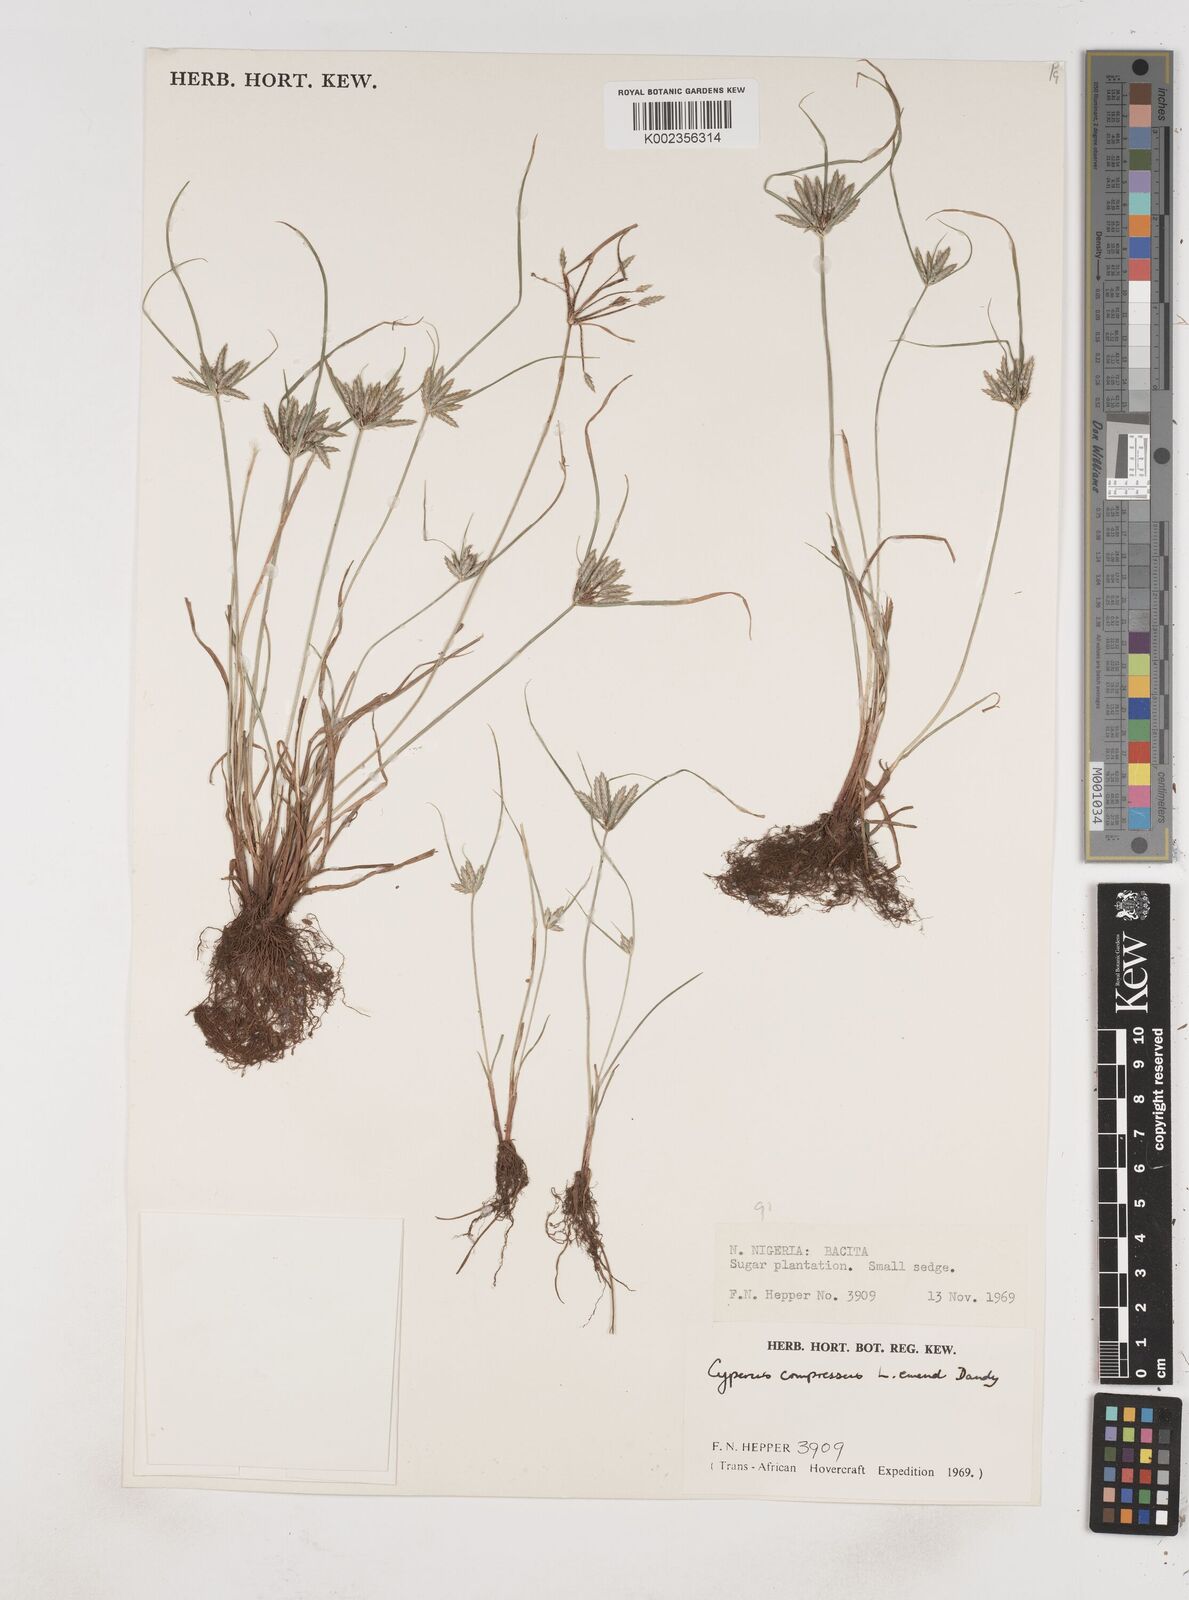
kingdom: Plantae
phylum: Tracheophyta
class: Liliopsida
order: Poales
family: Cyperaceae
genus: Cyperus
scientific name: Cyperus compressus
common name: Poorland flatsedge
